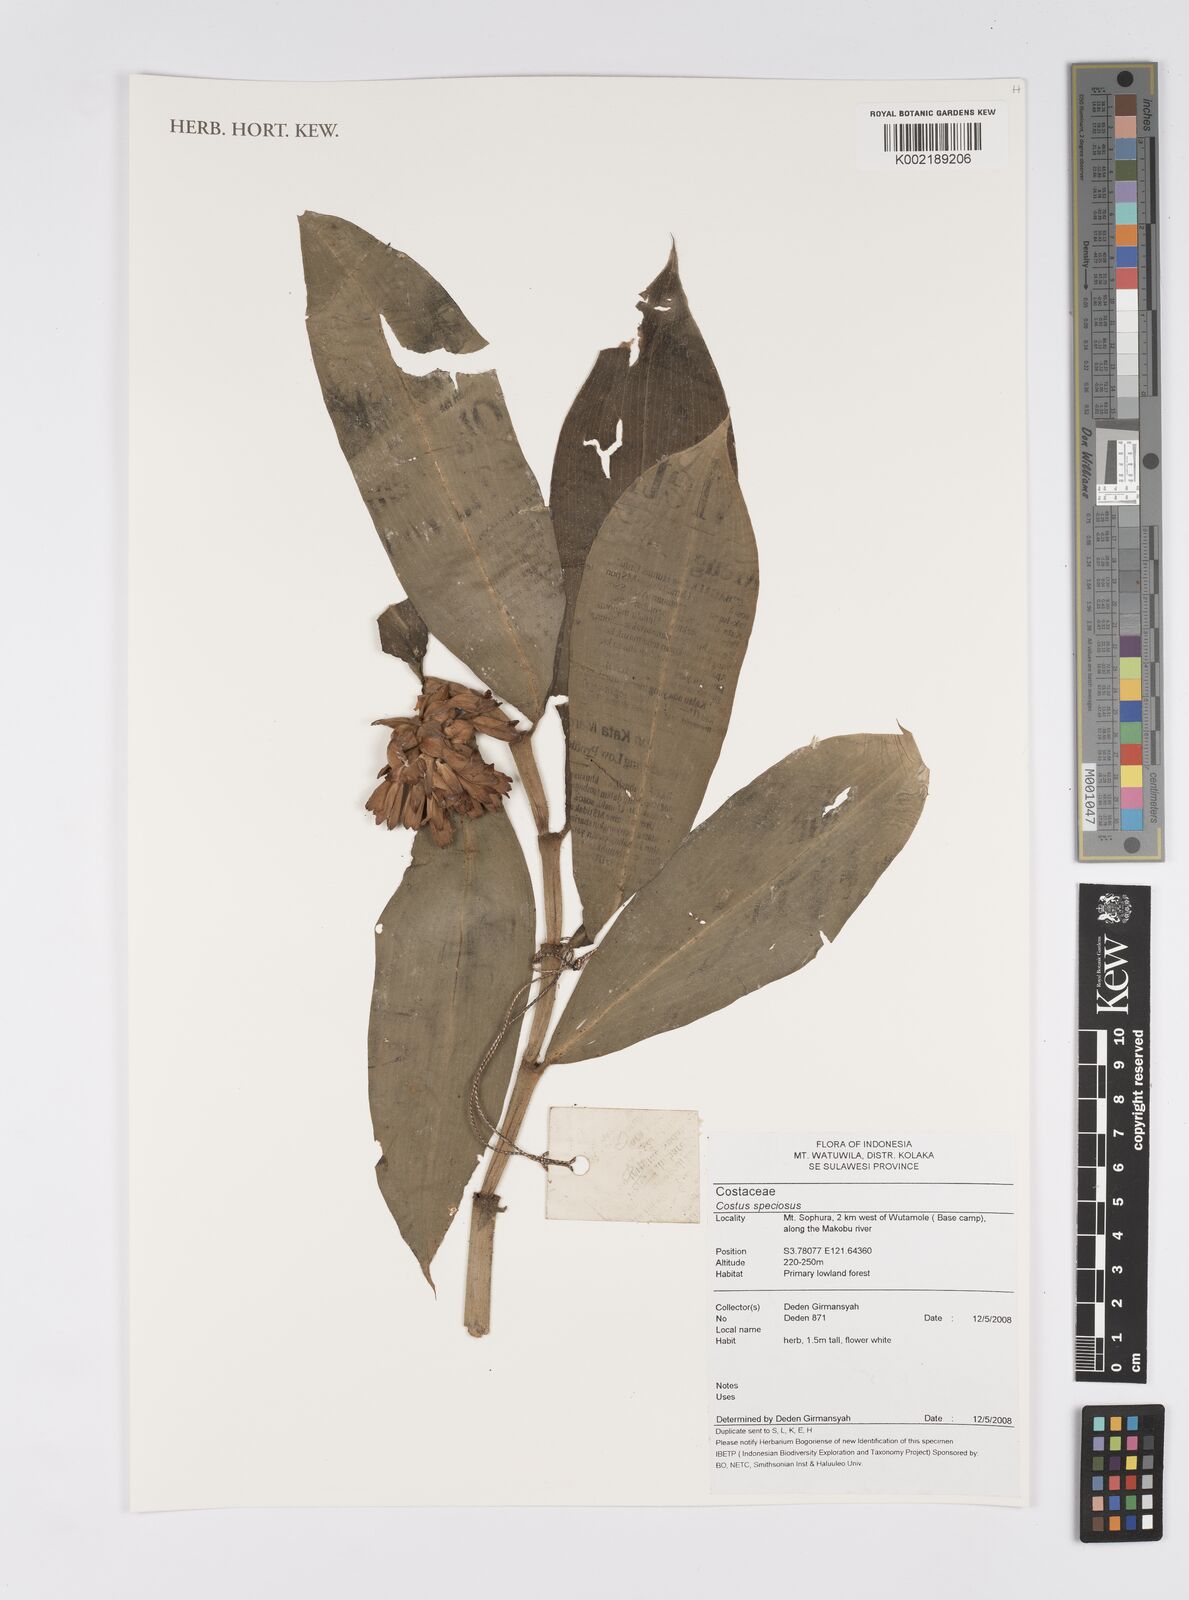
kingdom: Plantae
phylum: Tracheophyta
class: Liliopsida
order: Zingiberales
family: Costaceae
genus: Hellenia
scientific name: Hellenia speciosa
